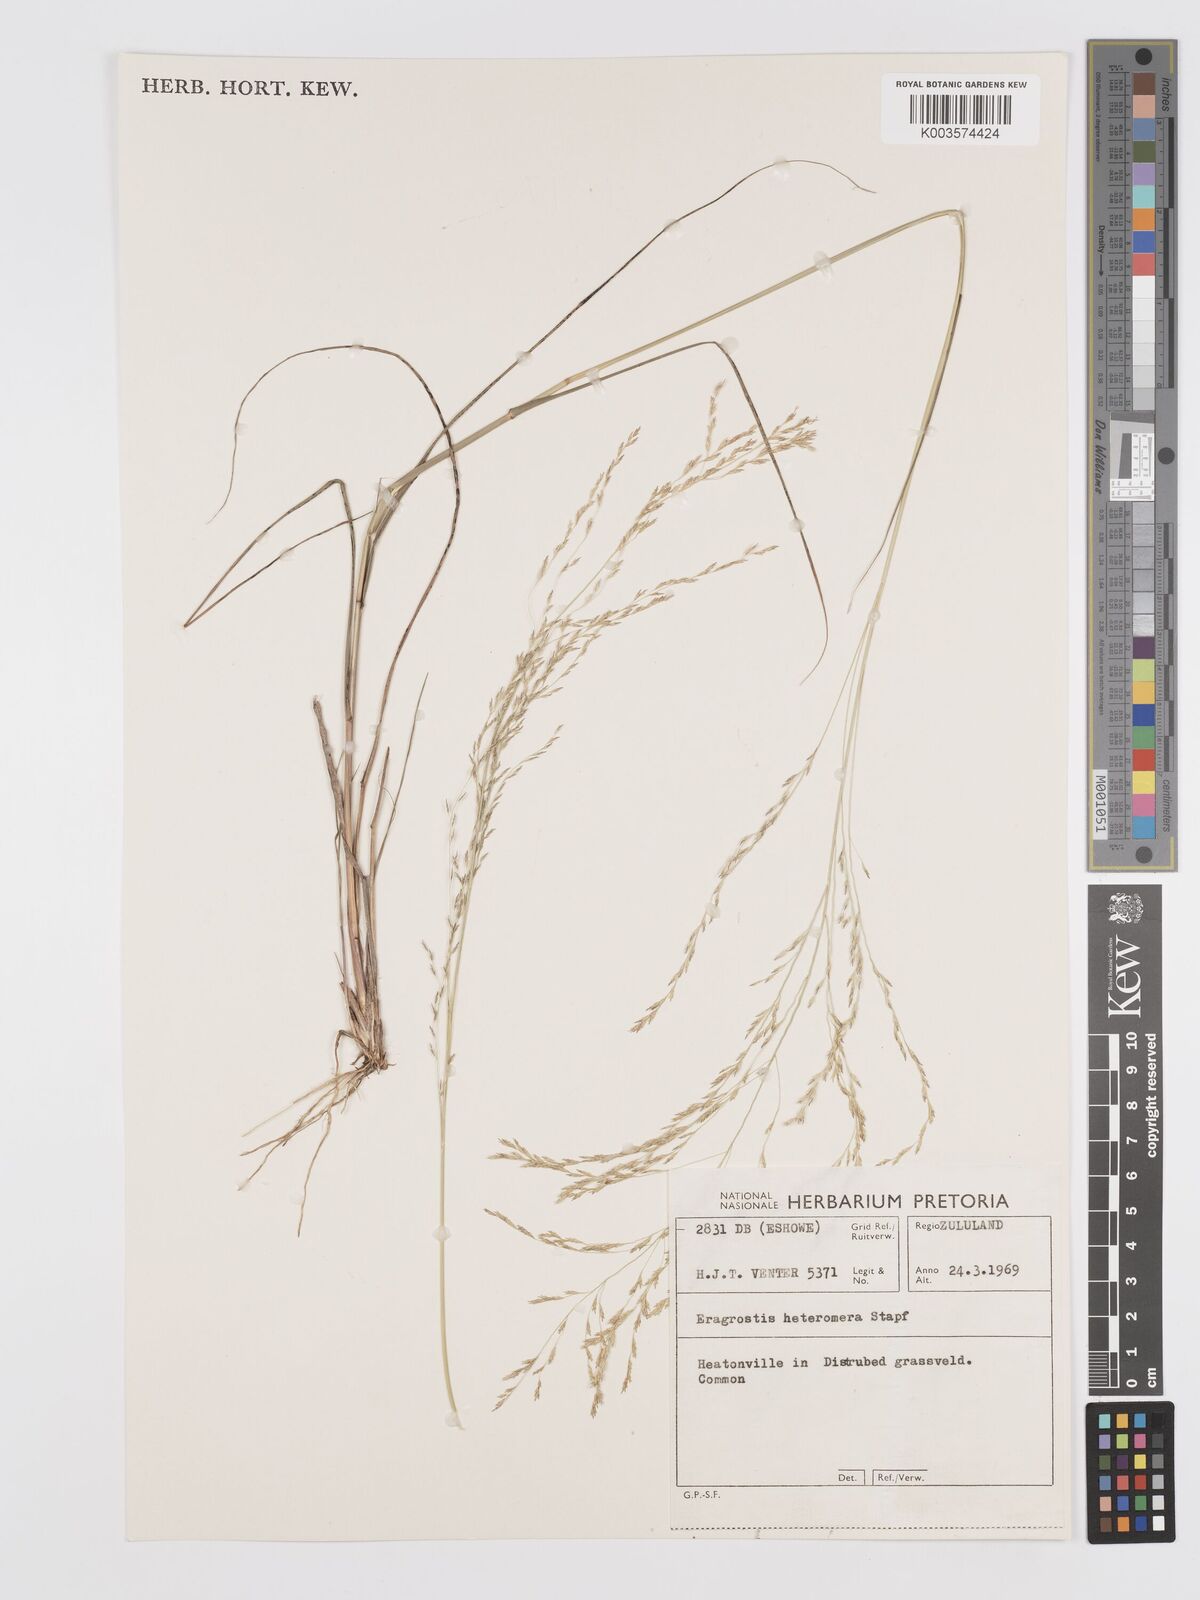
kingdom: Plantae
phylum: Tracheophyta
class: Liliopsida
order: Poales
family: Poaceae
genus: Eragrostis
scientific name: Eragrostis heteromera
